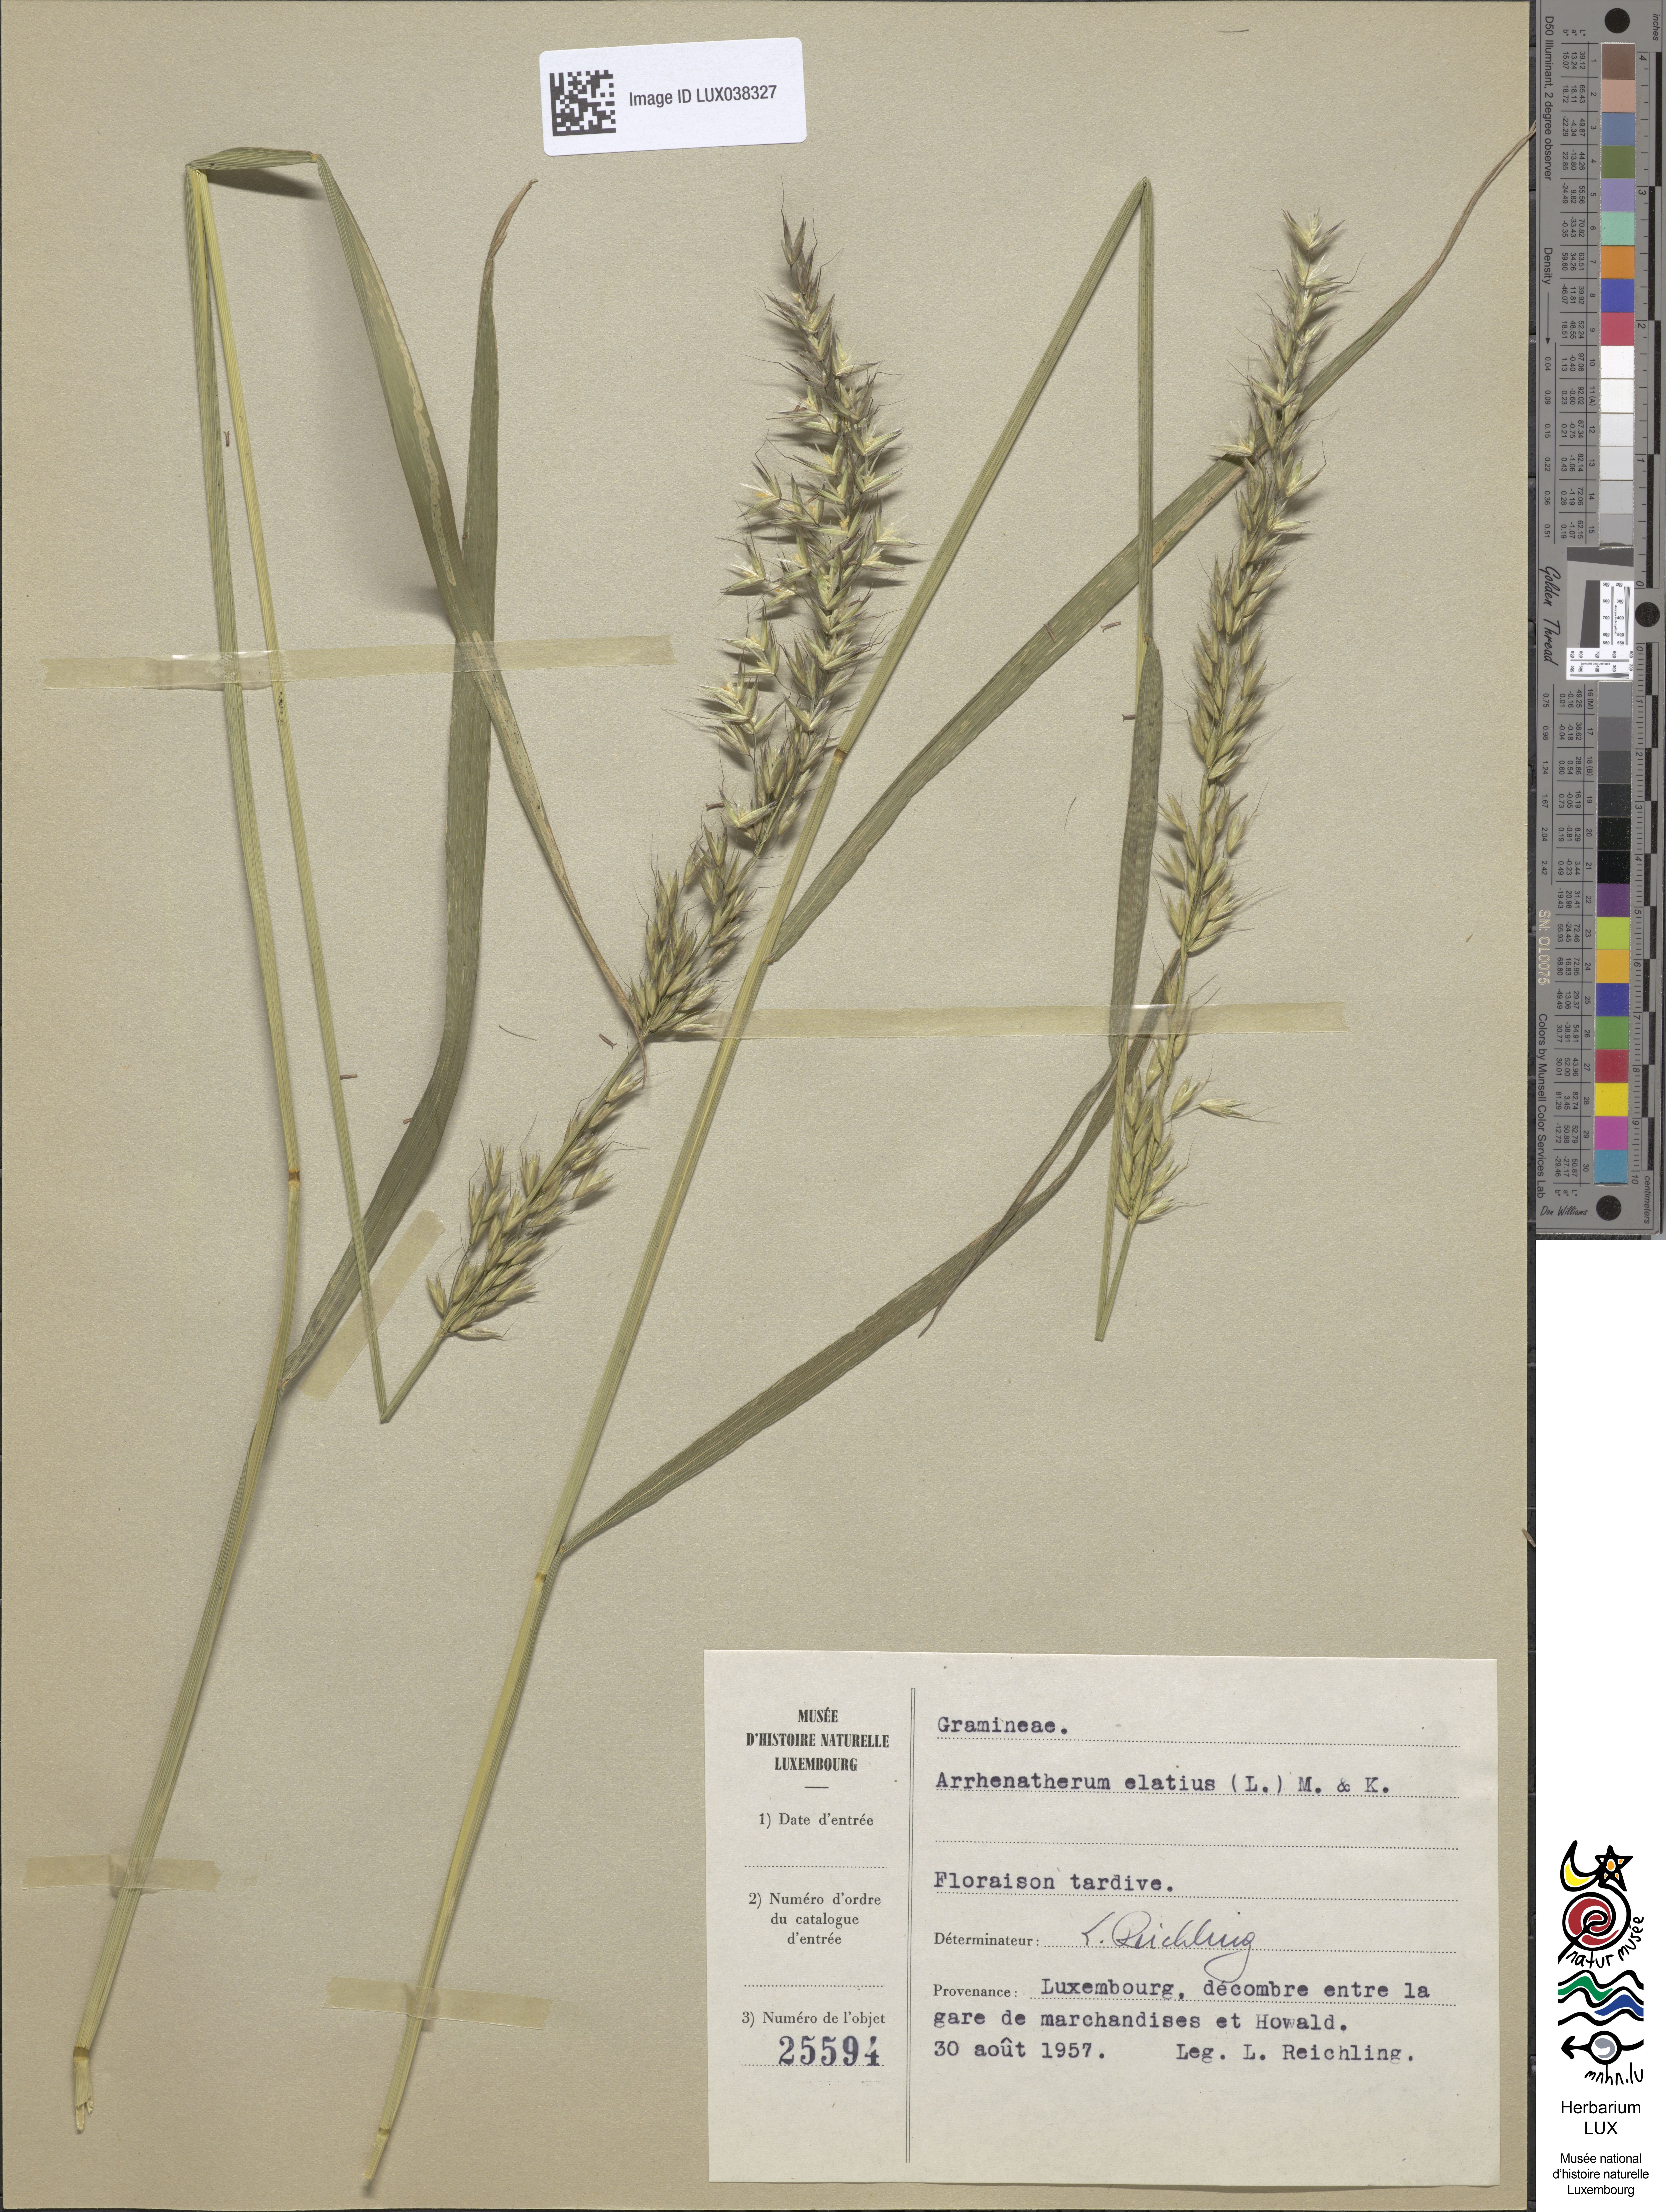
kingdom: Plantae
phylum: Tracheophyta
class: Liliopsida
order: Poales
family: Poaceae
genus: Arrhenatherum
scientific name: Arrhenatherum elatius
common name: Tall oatgrass
